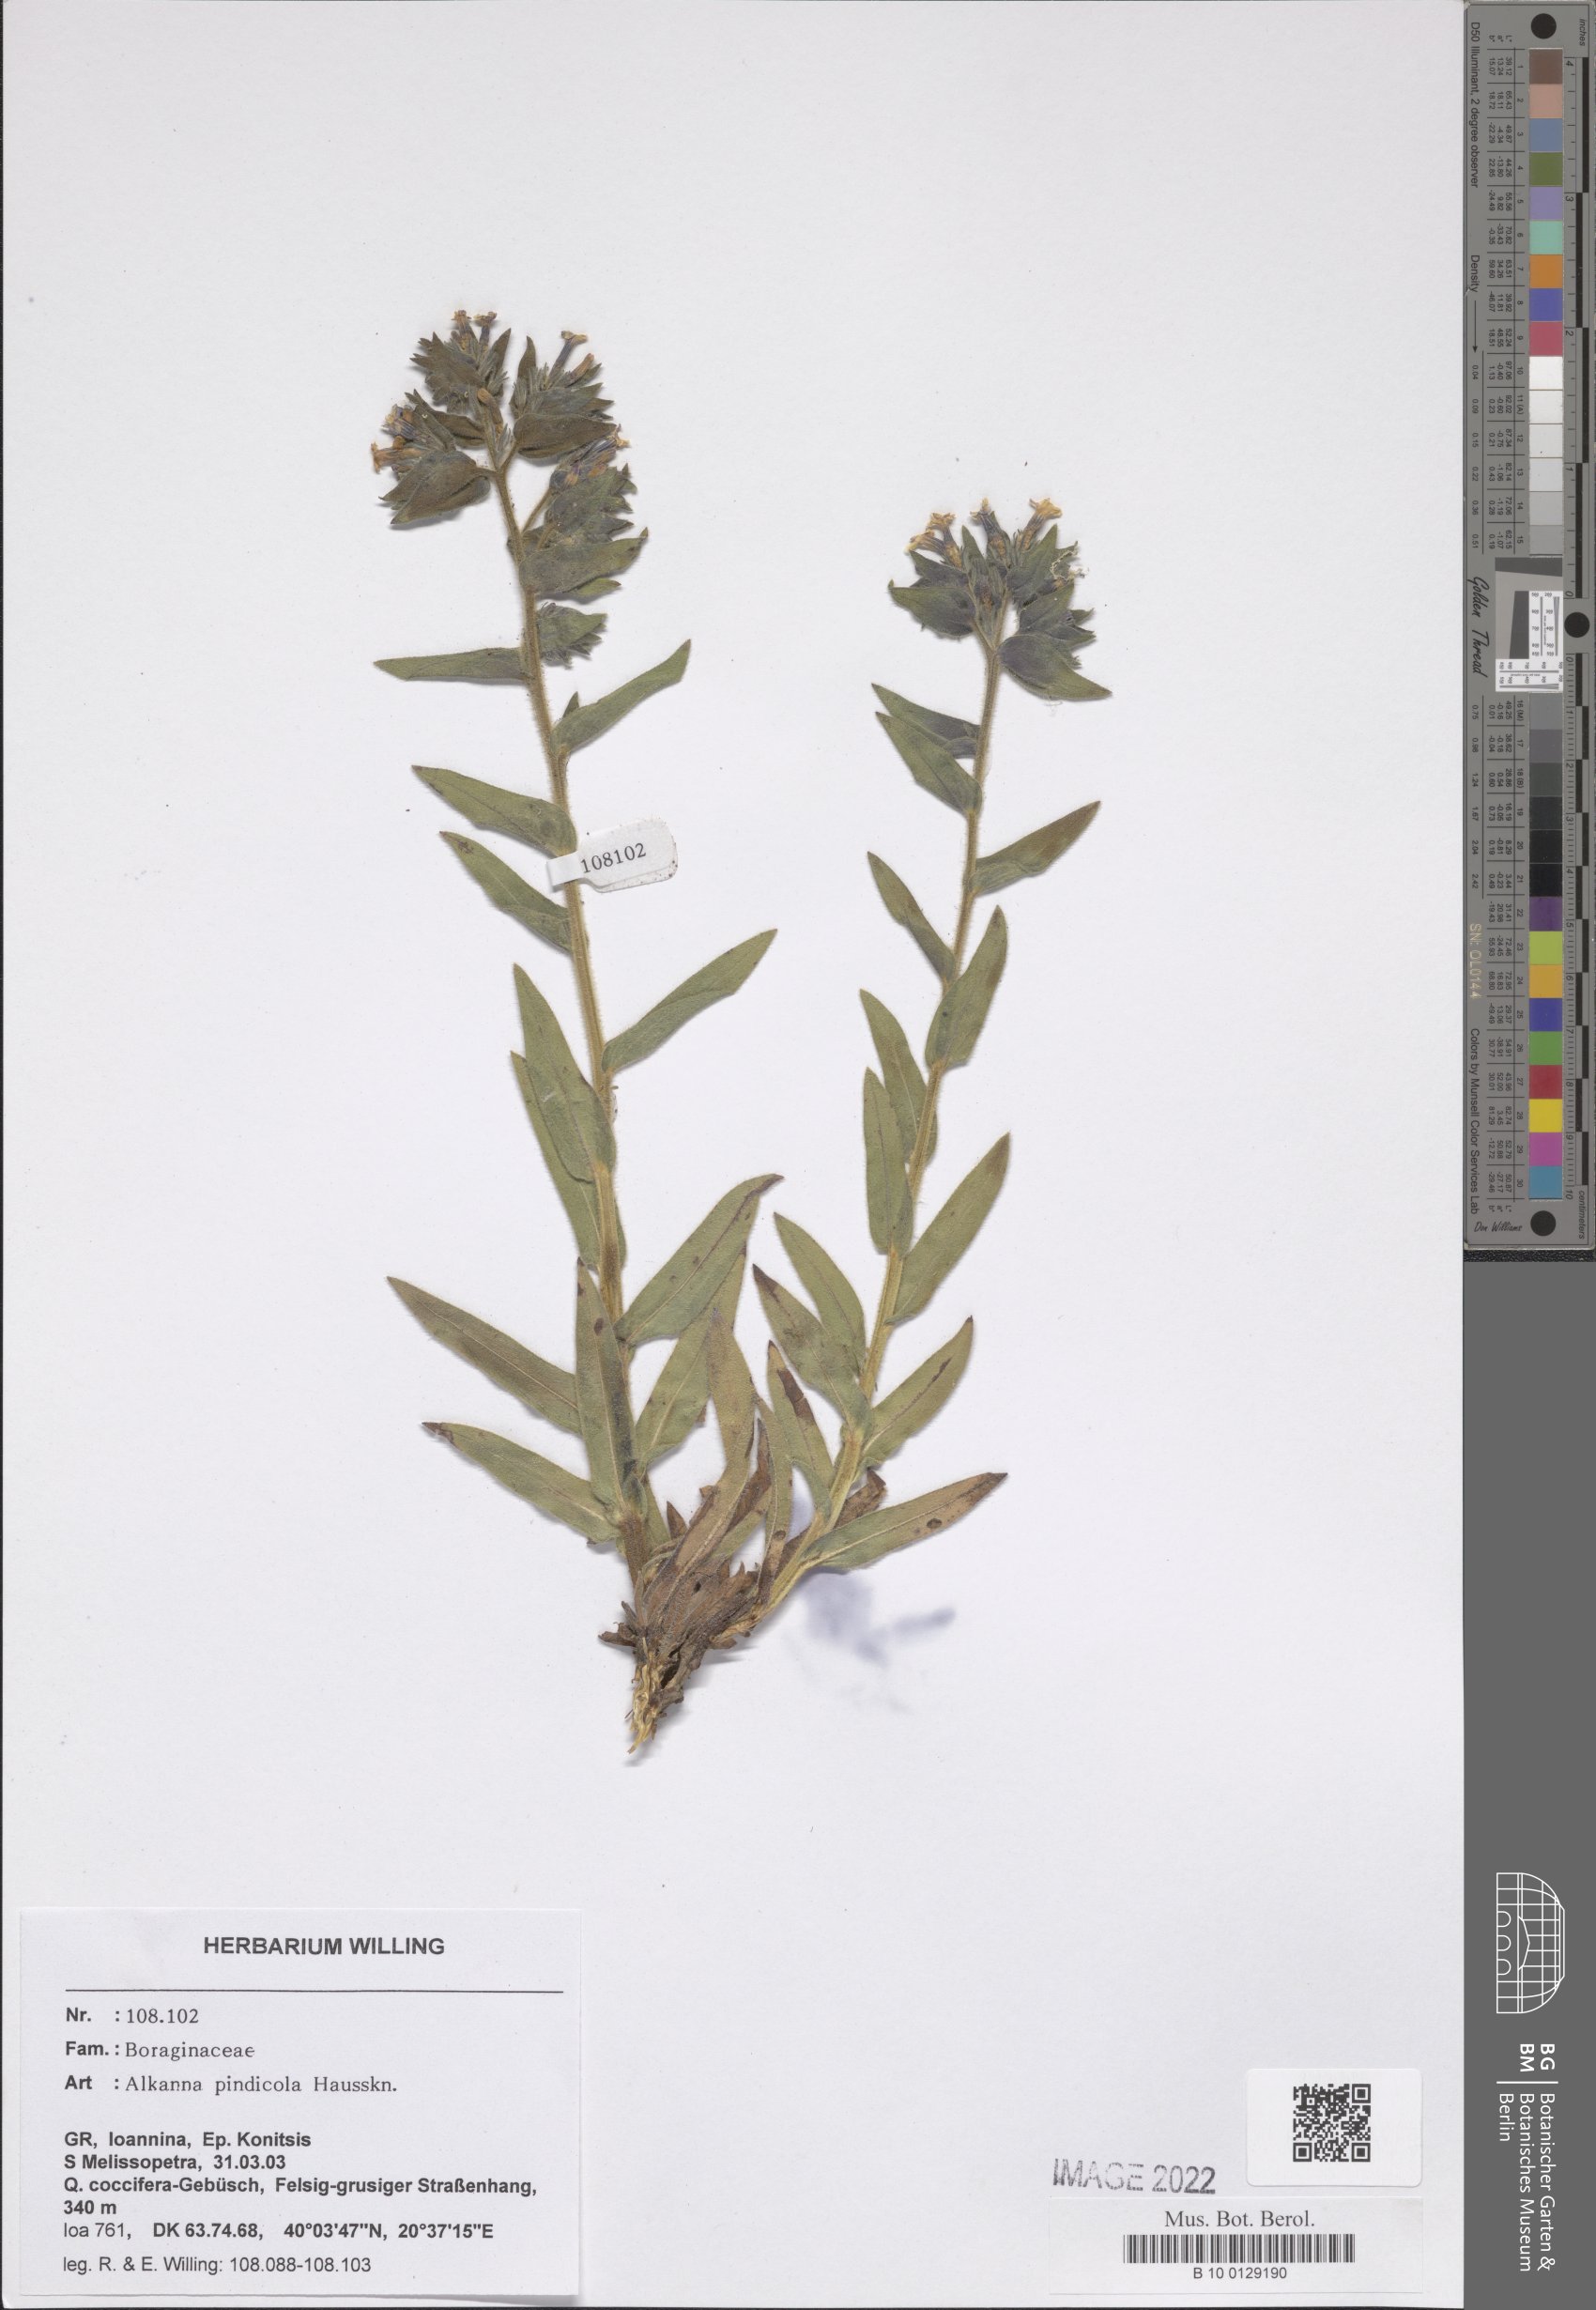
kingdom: Plantae
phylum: Tracheophyta
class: Magnoliopsida
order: Boraginales
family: Boraginaceae
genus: Alkanna
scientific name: Alkanna pindicola
